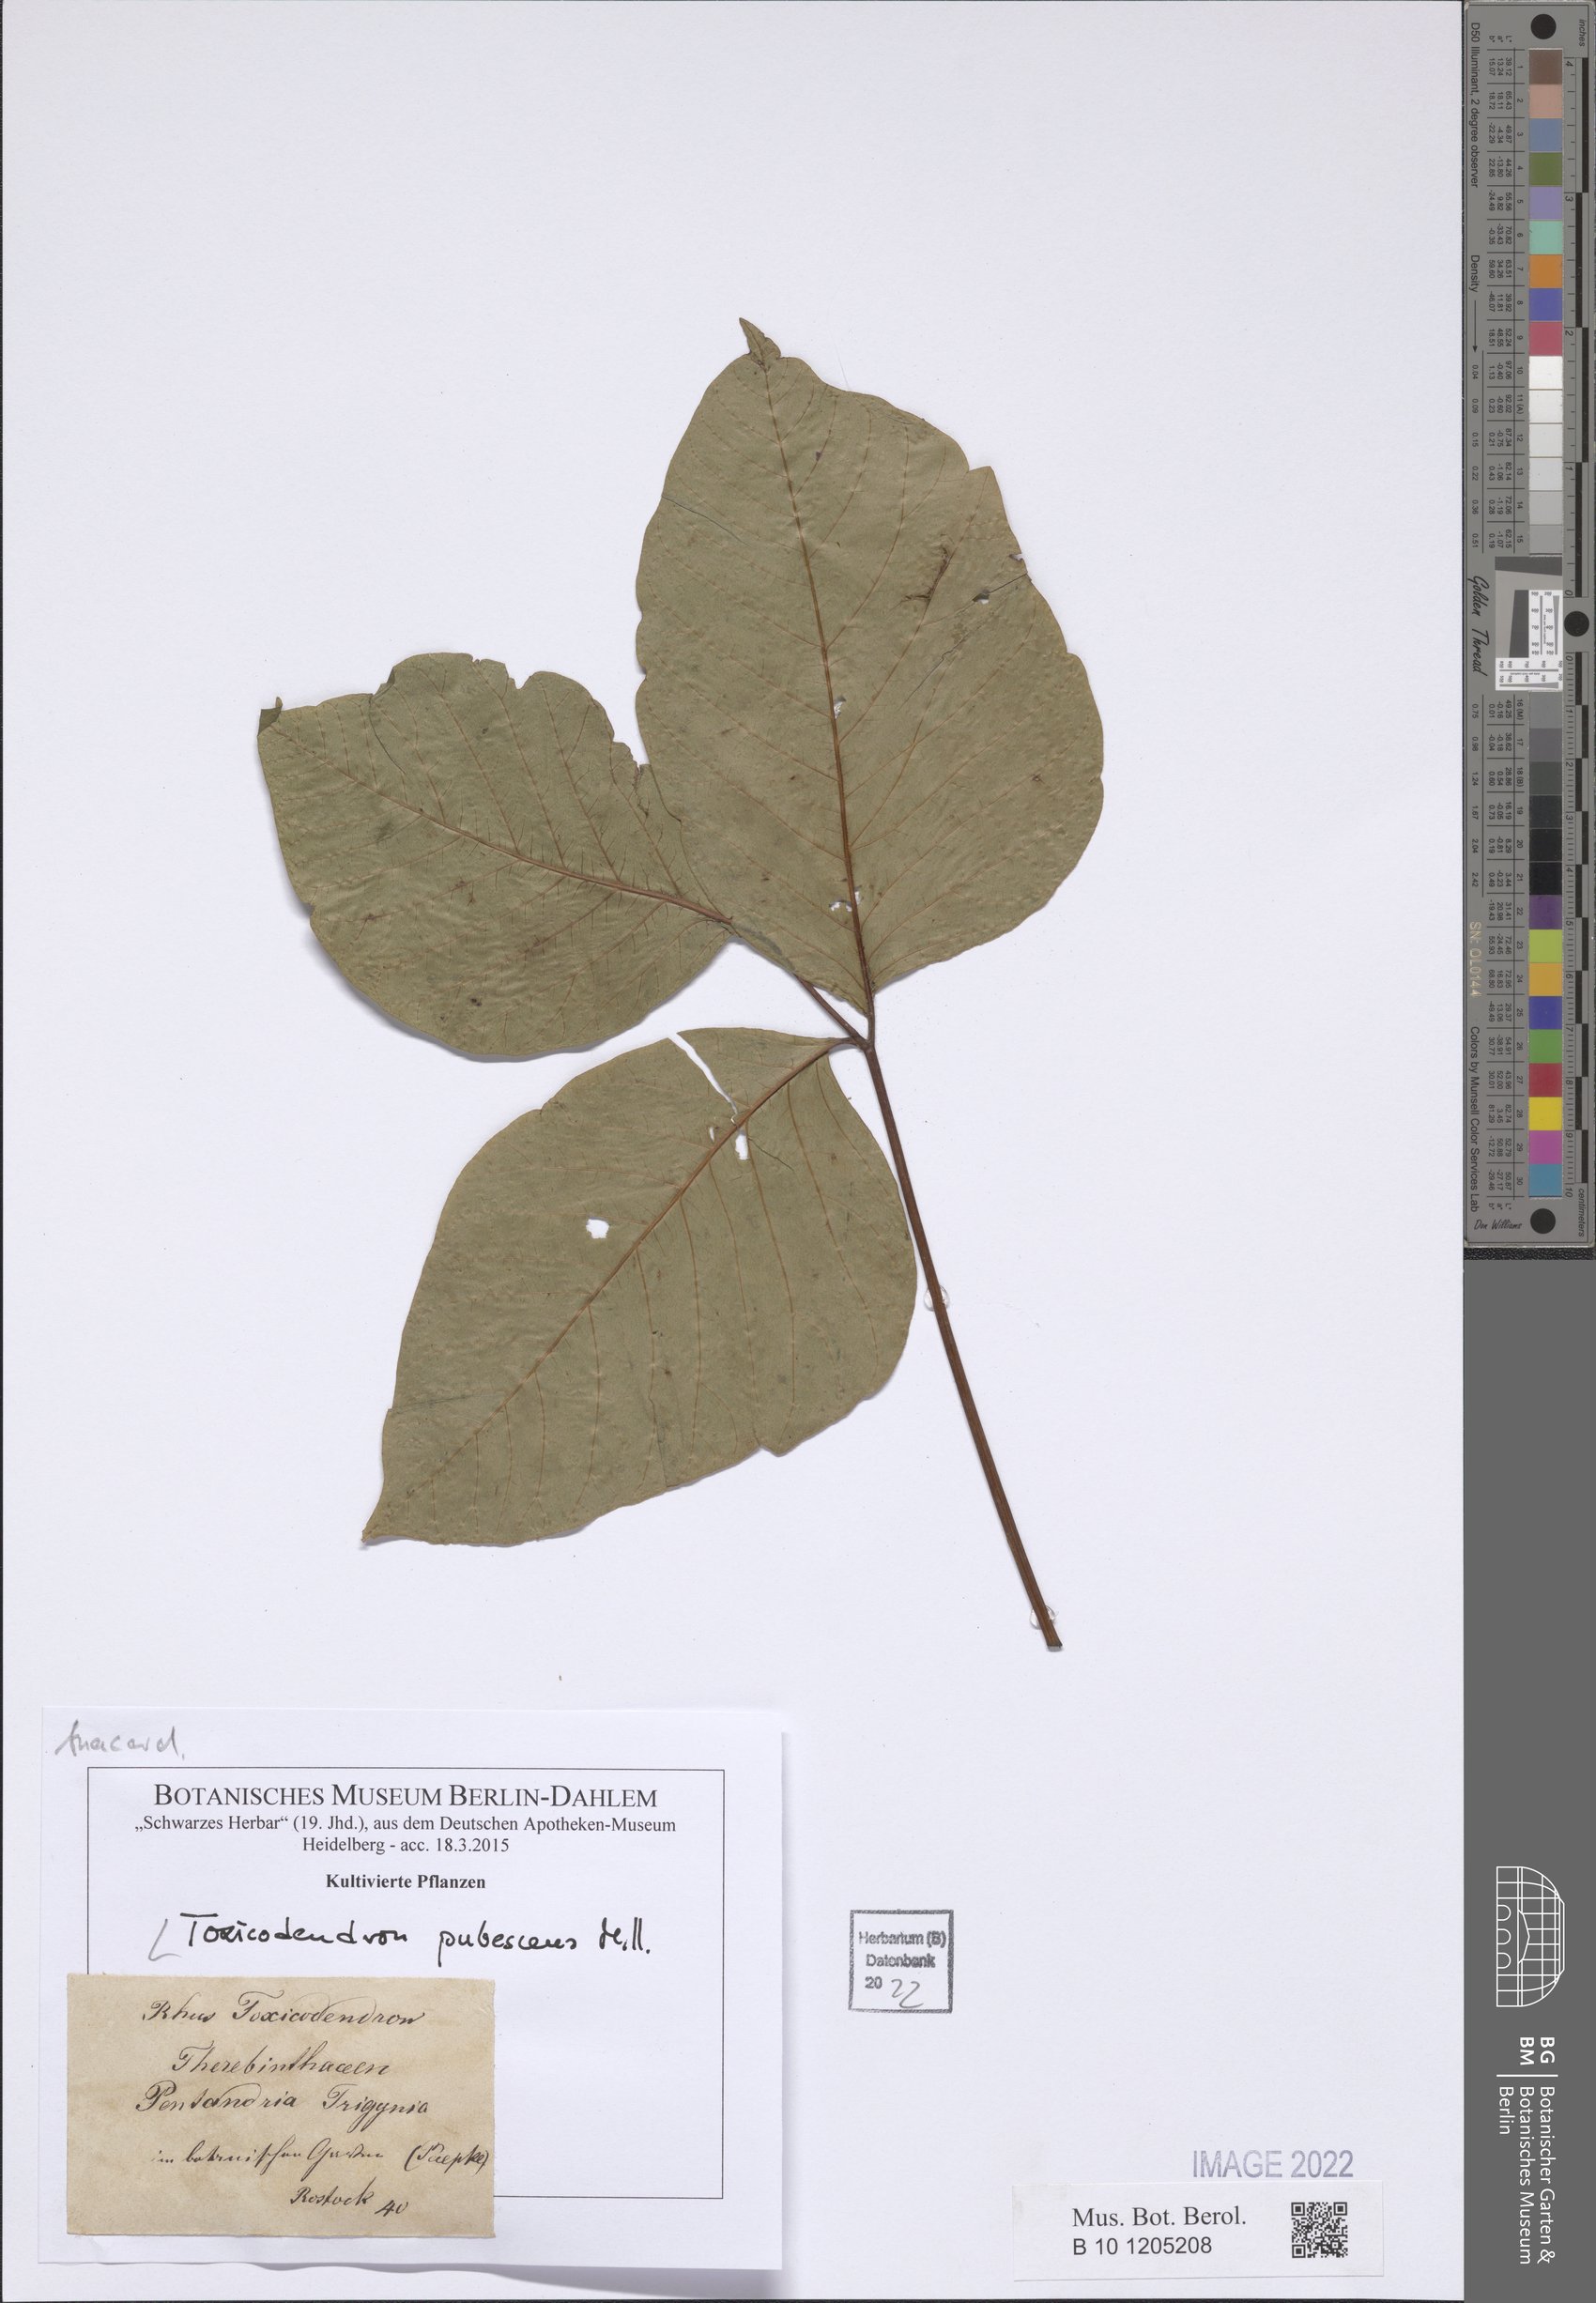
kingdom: Plantae
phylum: Tracheophyta
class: Magnoliopsida
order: Sapindales
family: Anacardiaceae
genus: Toxicodendron
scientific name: Toxicodendron pubescens
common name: Eastern poison-oak
